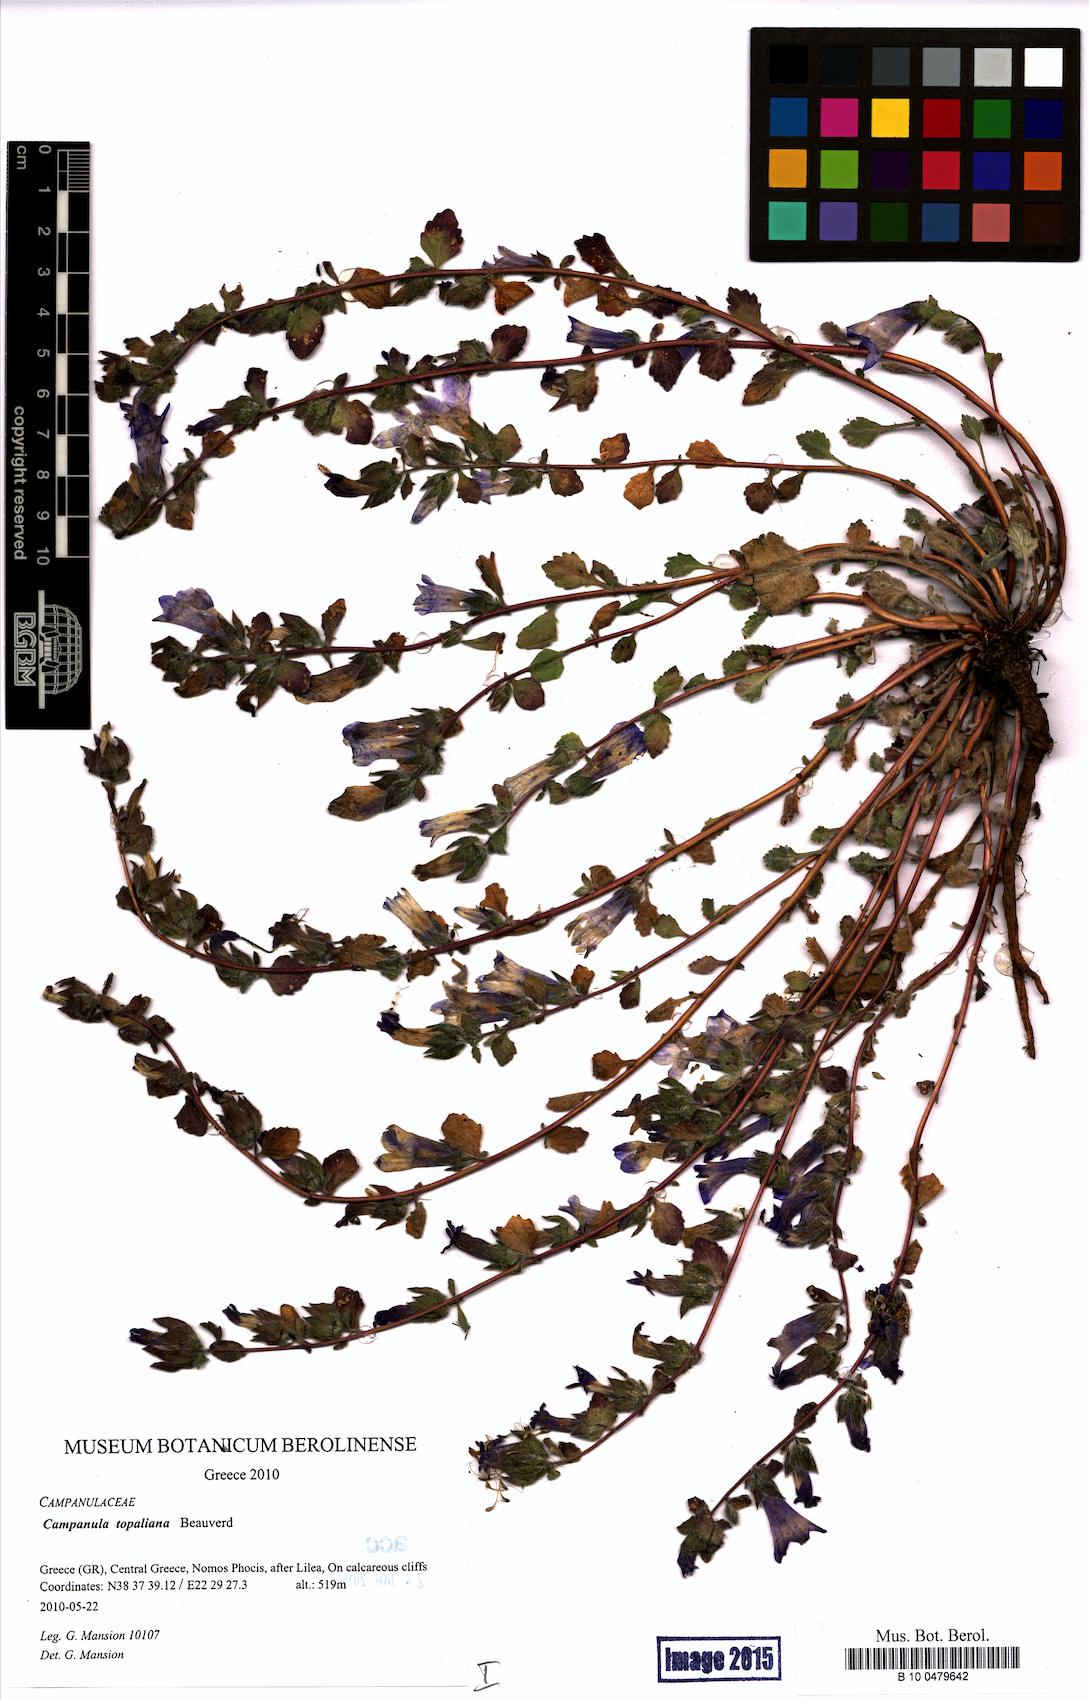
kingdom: Plantae
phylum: Tracheophyta
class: Magnoliopsida
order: Asterales
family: Campanulaceae
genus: Campanula
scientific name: Campanula topaliana
